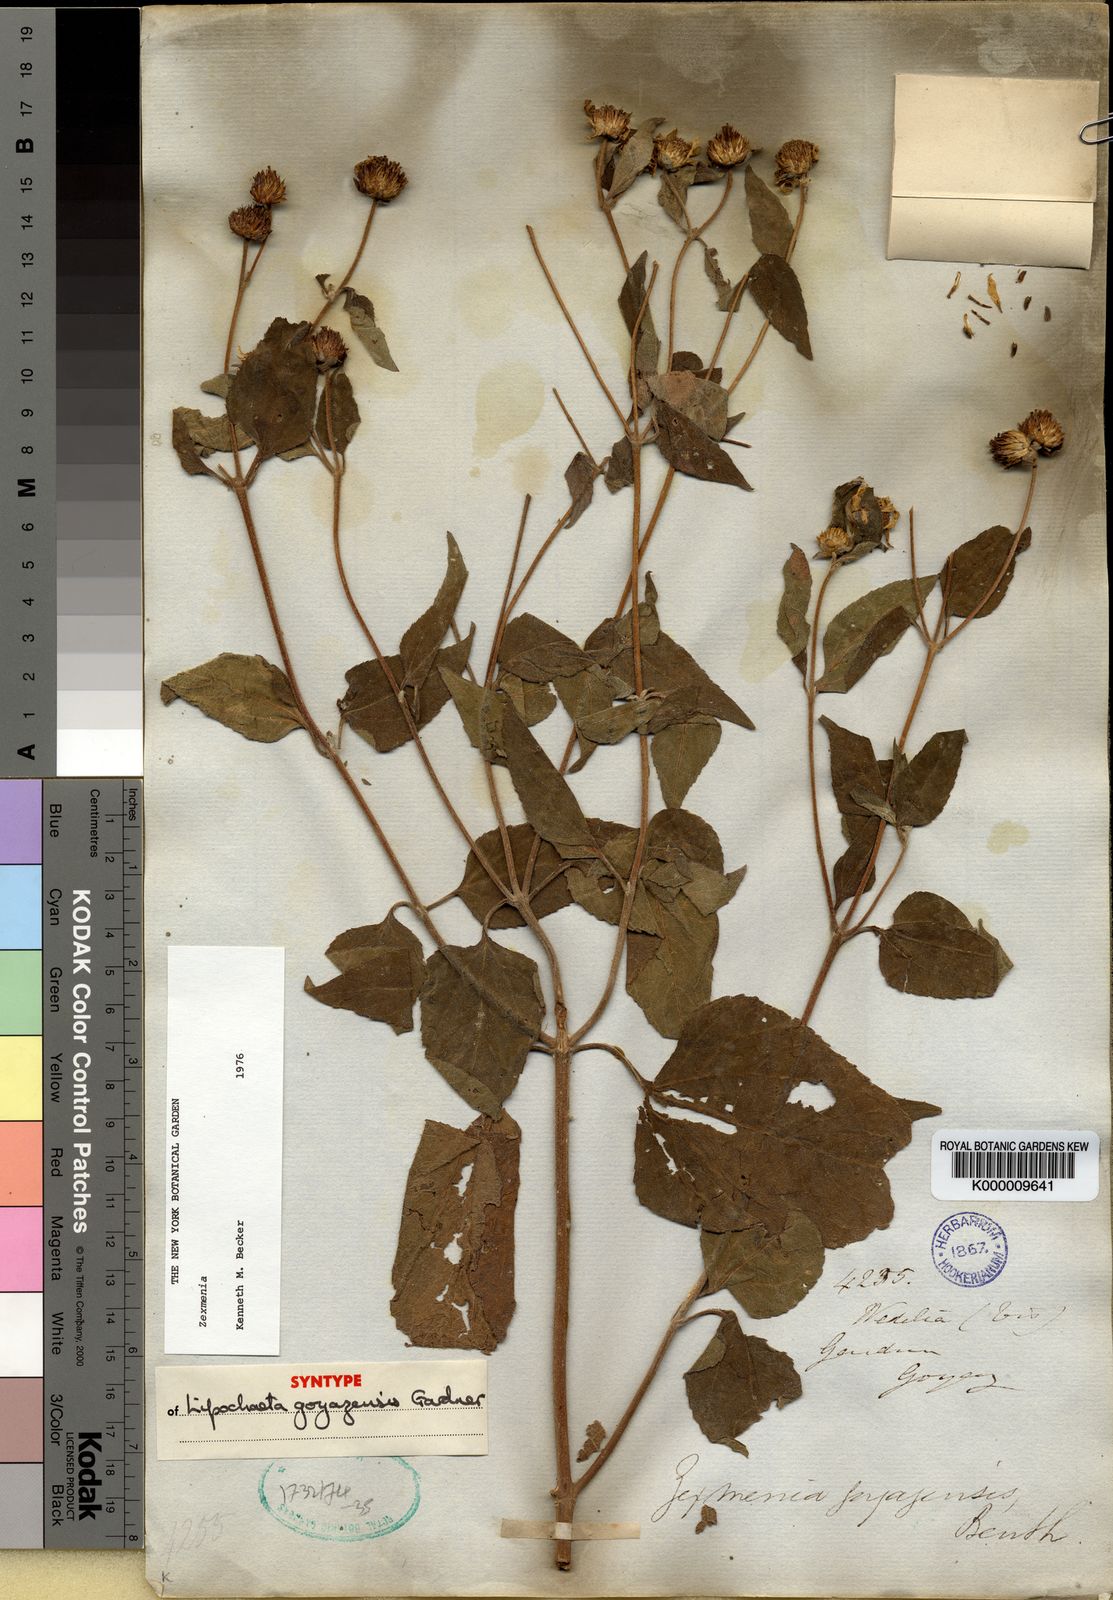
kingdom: Plantae
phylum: Tracheophyta
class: Magnoliopsida
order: Asterales
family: Asteraceae
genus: Lipochaeta
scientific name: Lipochaeta
